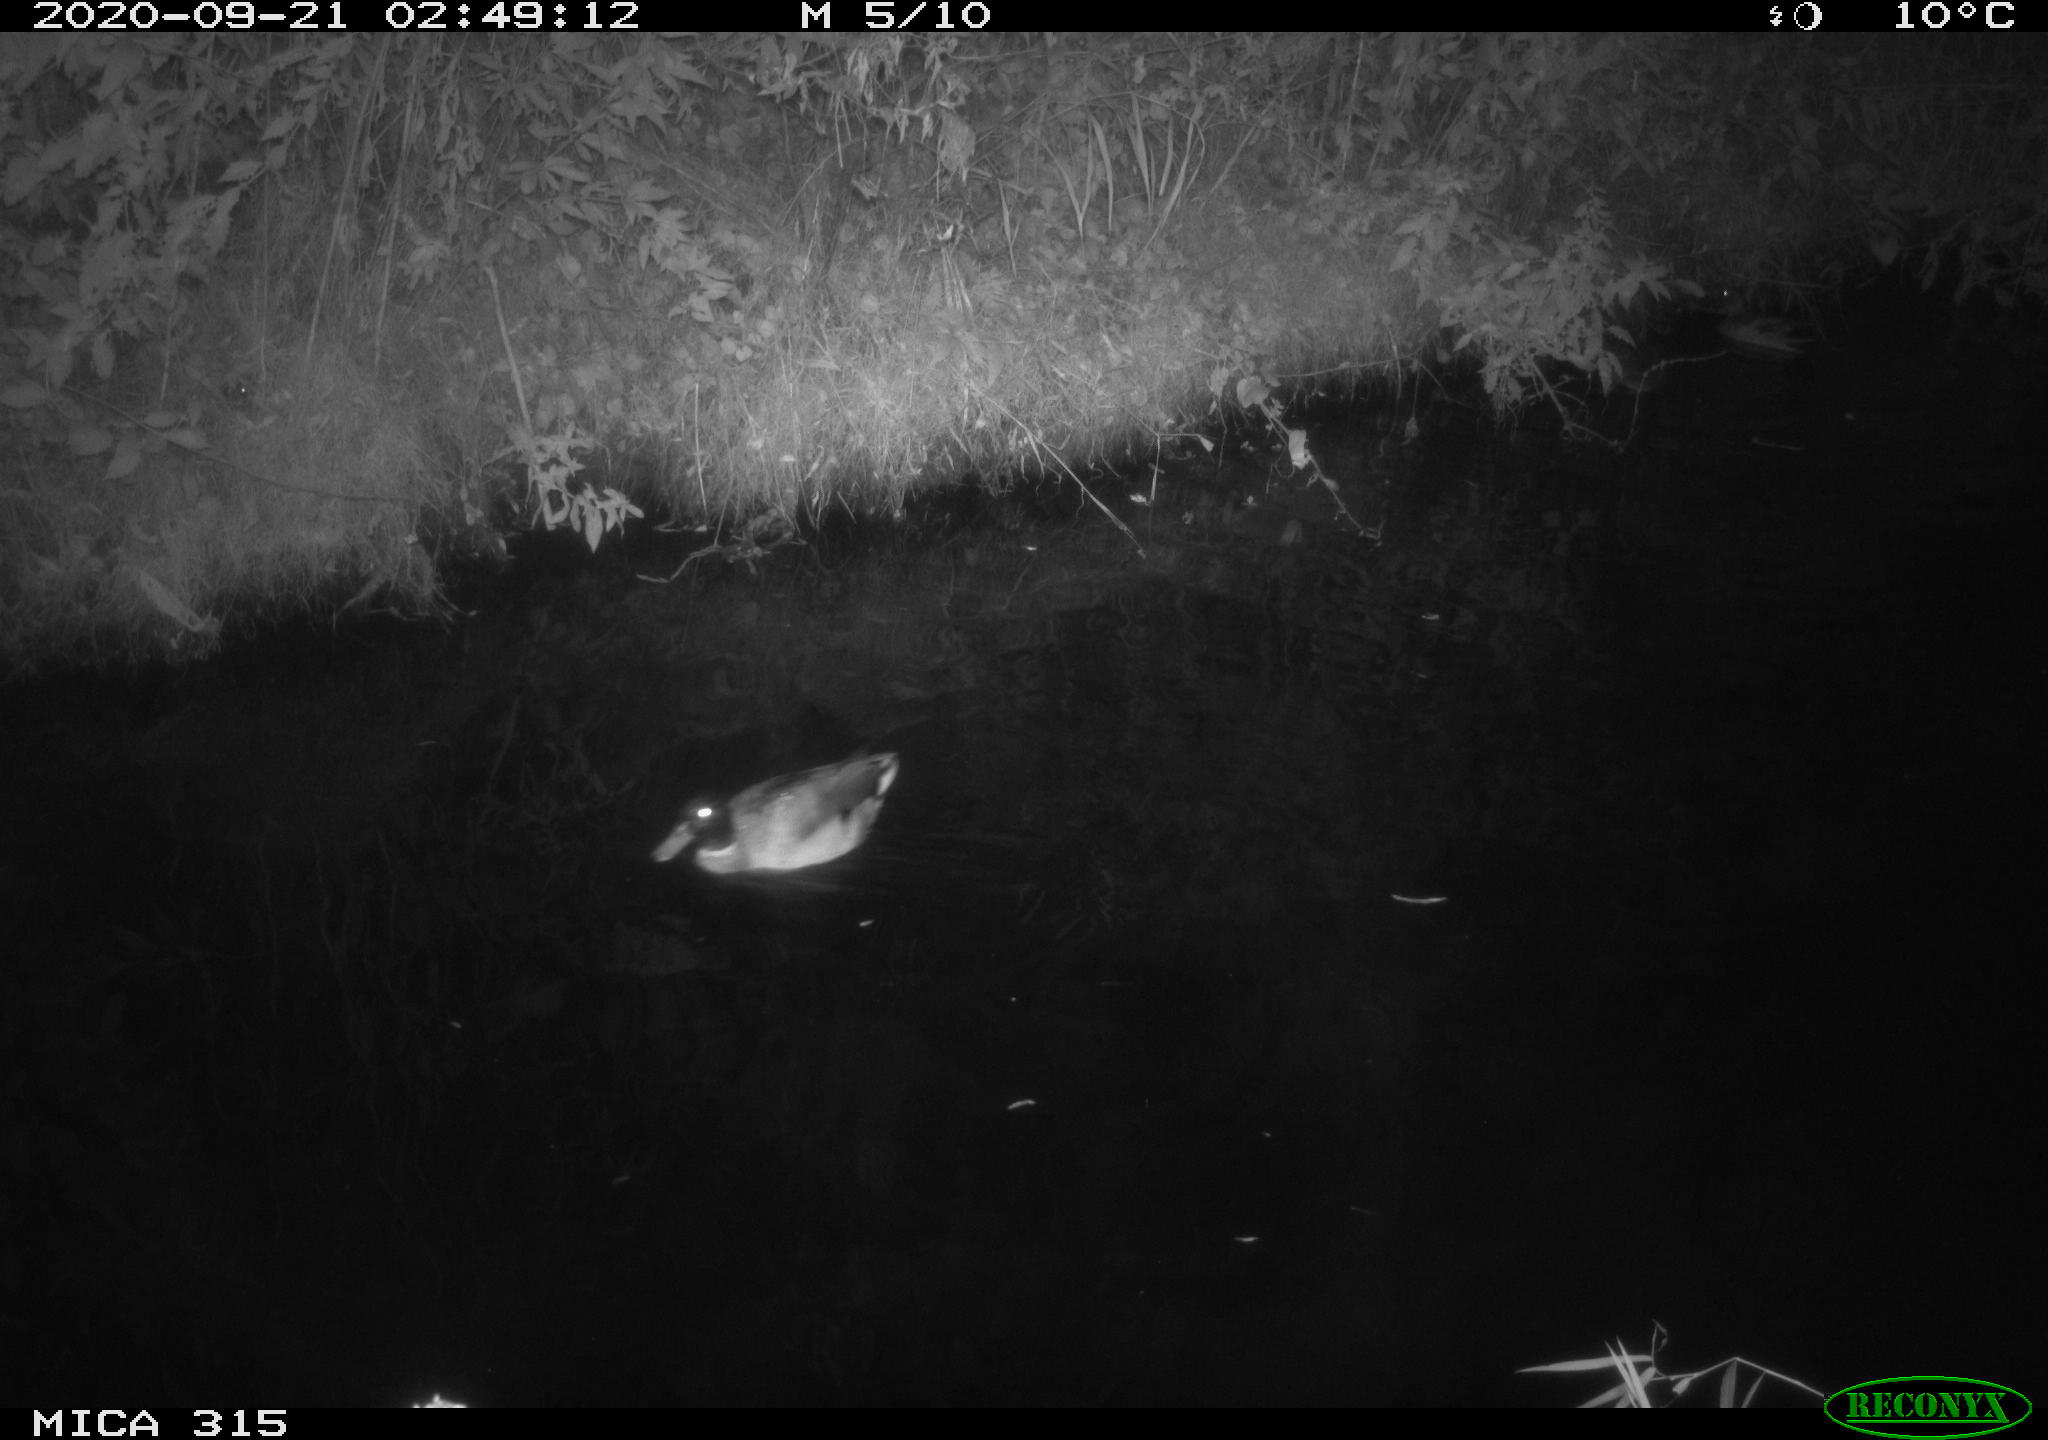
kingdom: Animalia
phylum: Chordata
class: Aves
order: Anseriformes
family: Anatidae
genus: Anas
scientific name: Anas platyrhynchos
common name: Mallard
